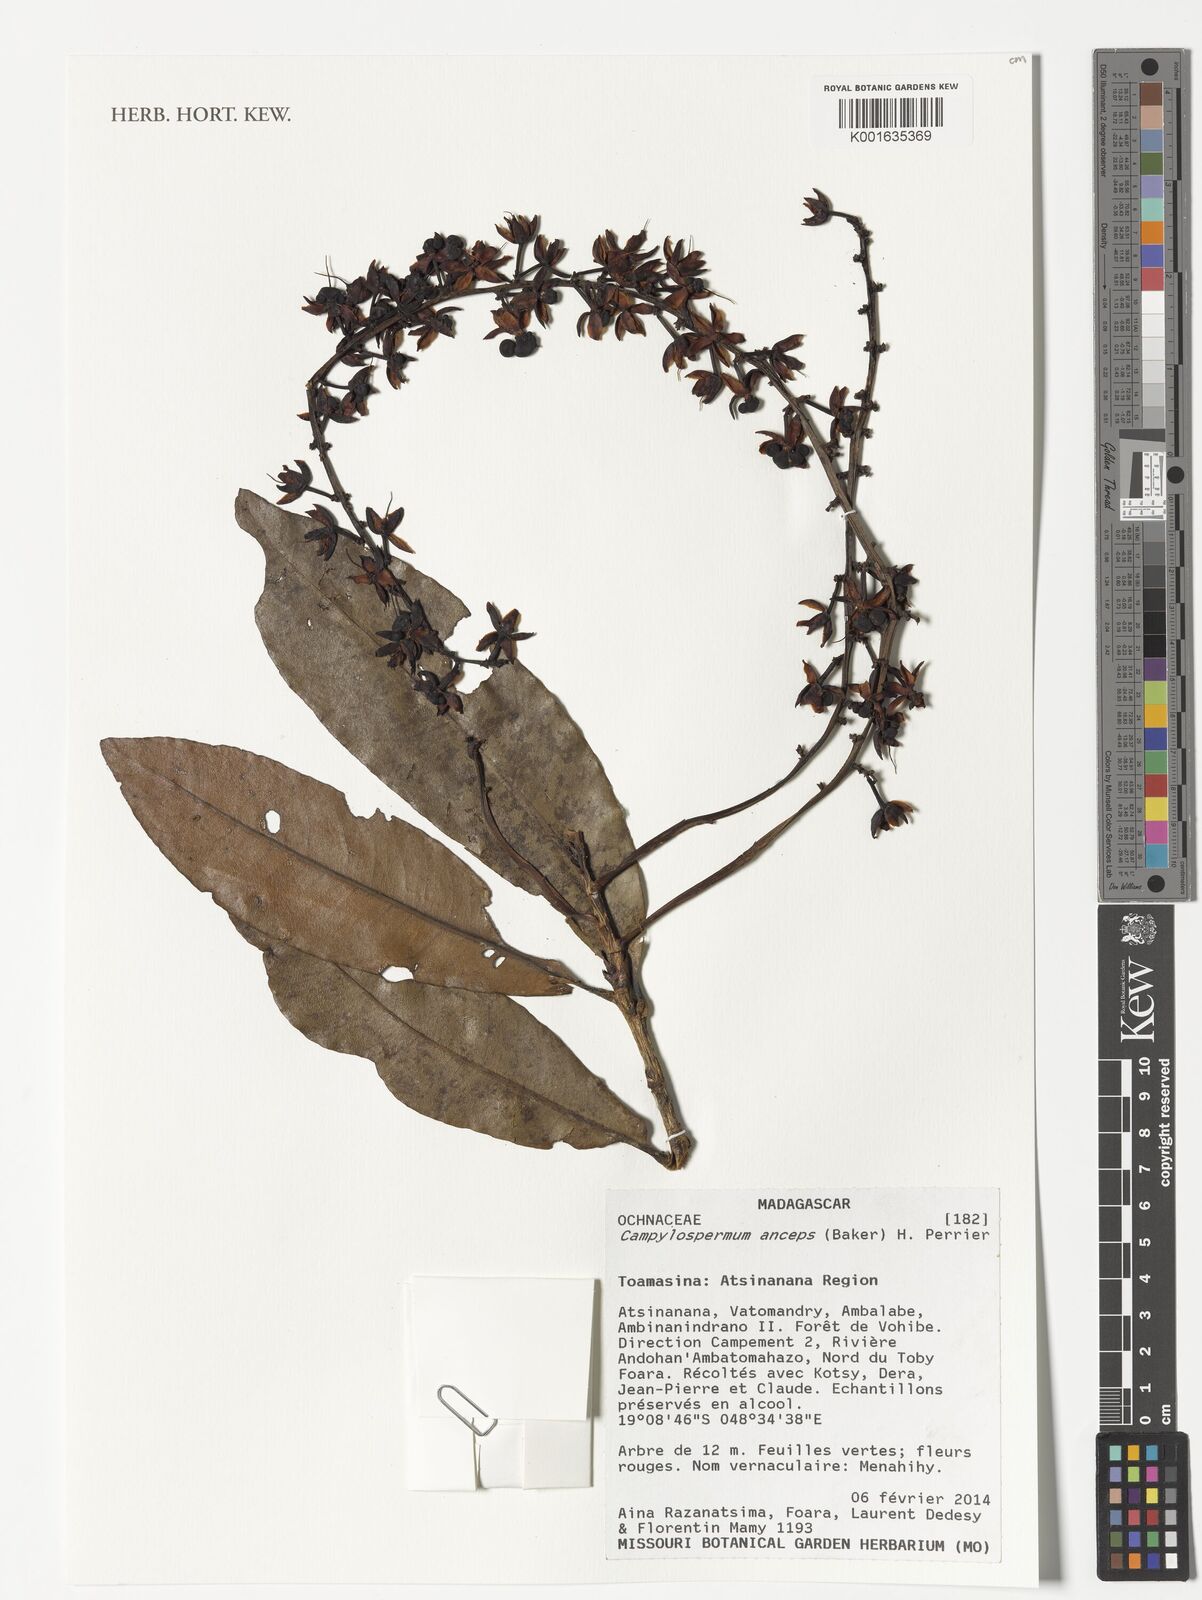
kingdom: Plantae
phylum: Tracheophyta
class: Magnoliopsida
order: Malpighiales
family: Ochnaceae
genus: Campylospermum
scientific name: Campylospermum anceps
